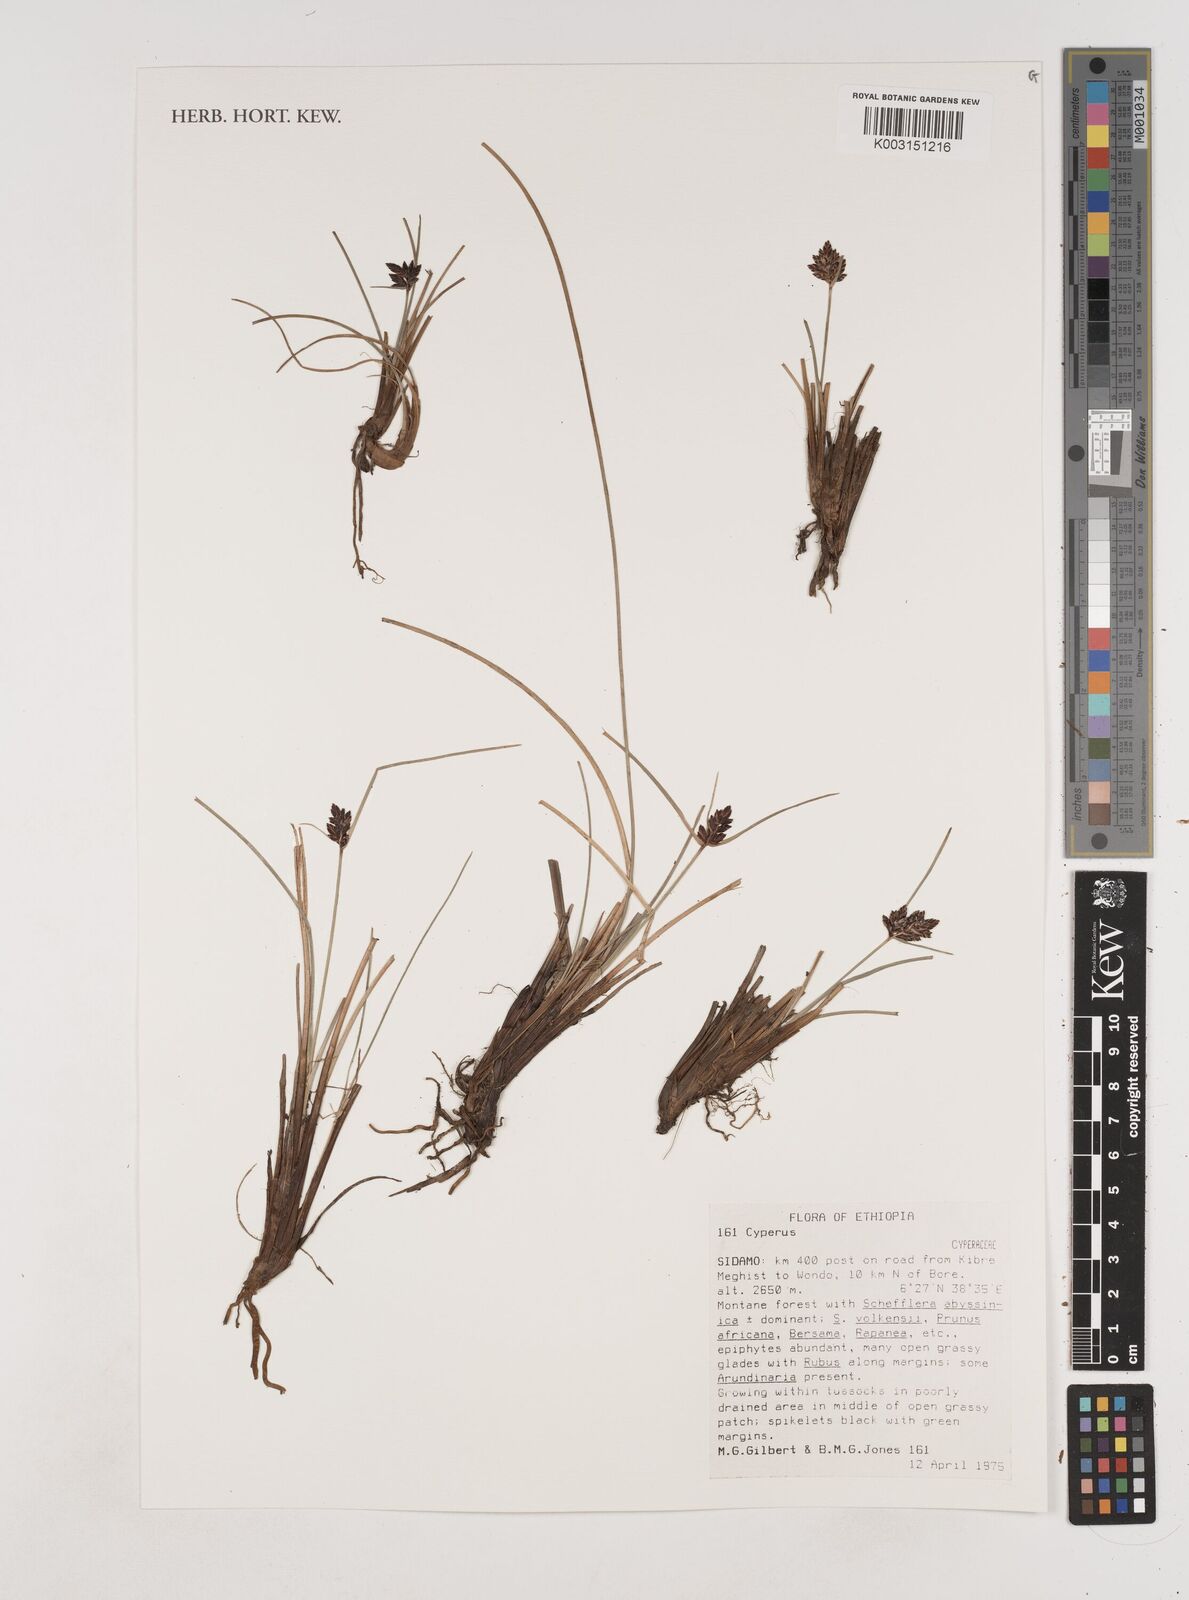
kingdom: Plantae
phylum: Tracheophyta
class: Liliopsida
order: Poales
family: Cyperaceae
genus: Cyperus
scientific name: Cyperus
